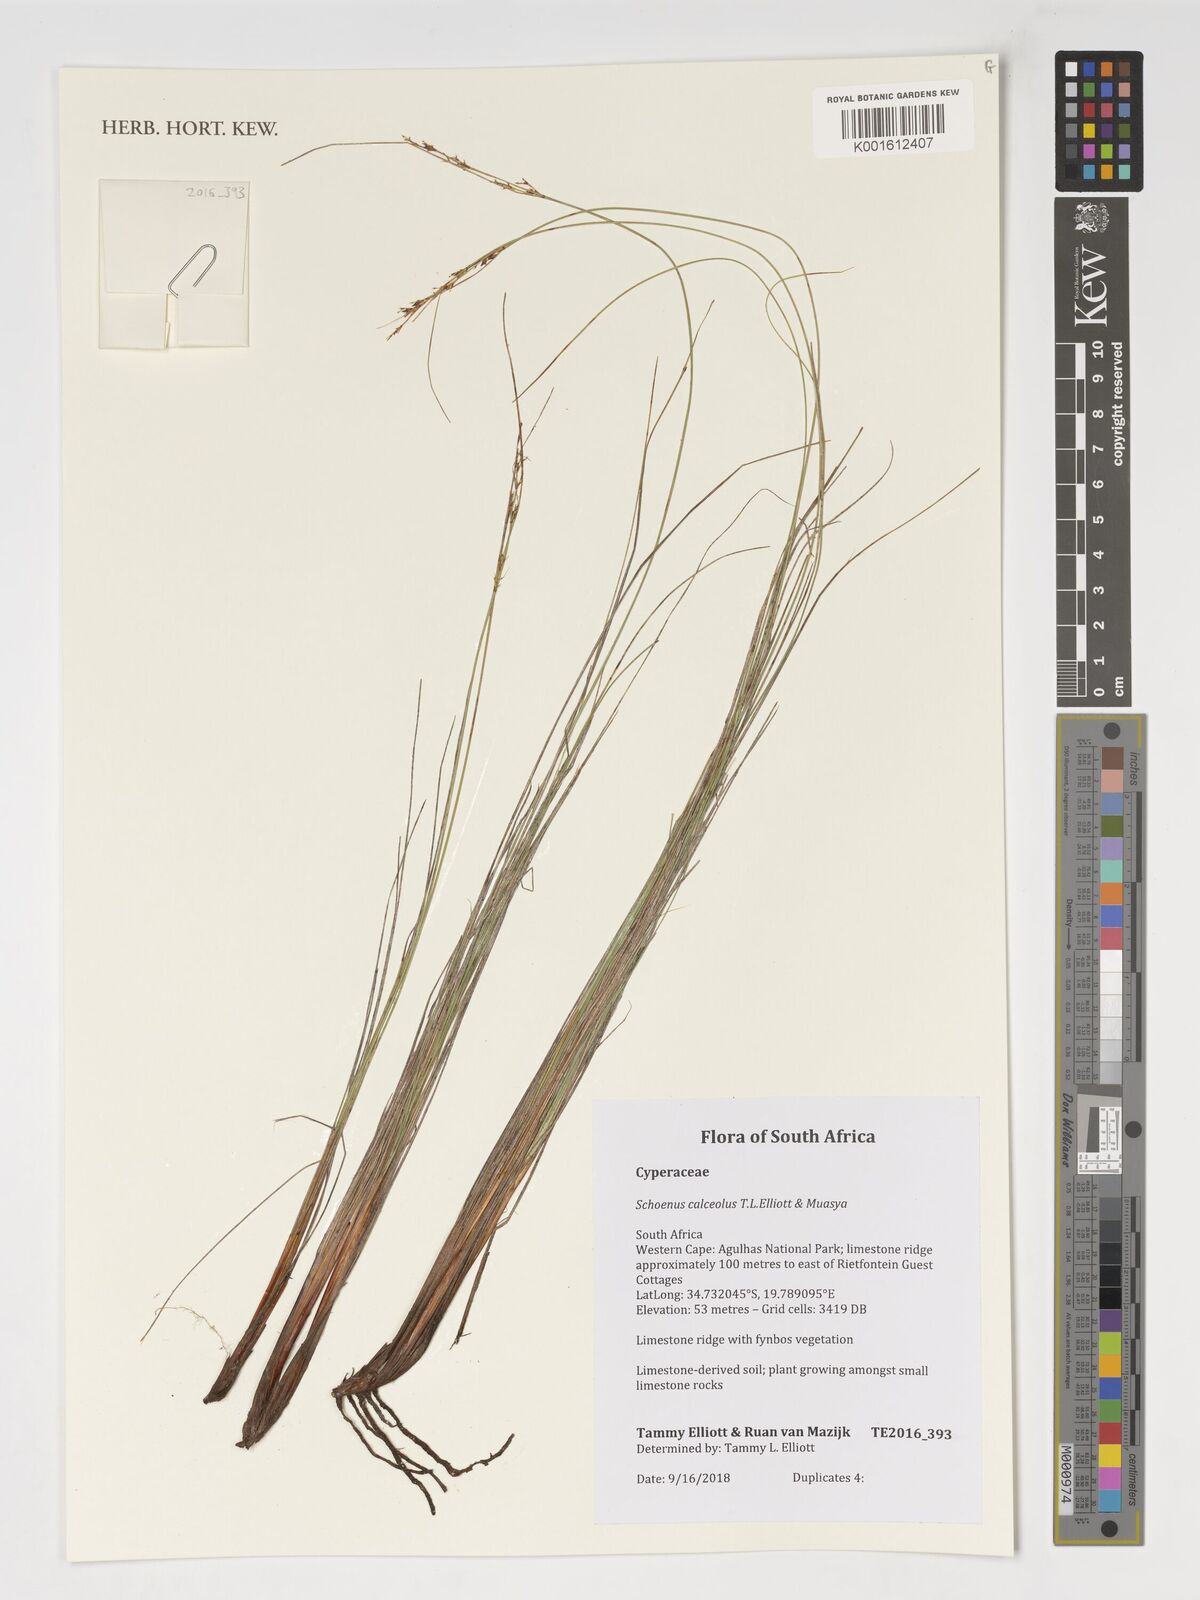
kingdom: Plantae
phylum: Tracheophyta
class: Liliopsida
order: Poales
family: Cyperaceae
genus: Schoenus
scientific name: Schoenus calceolus
